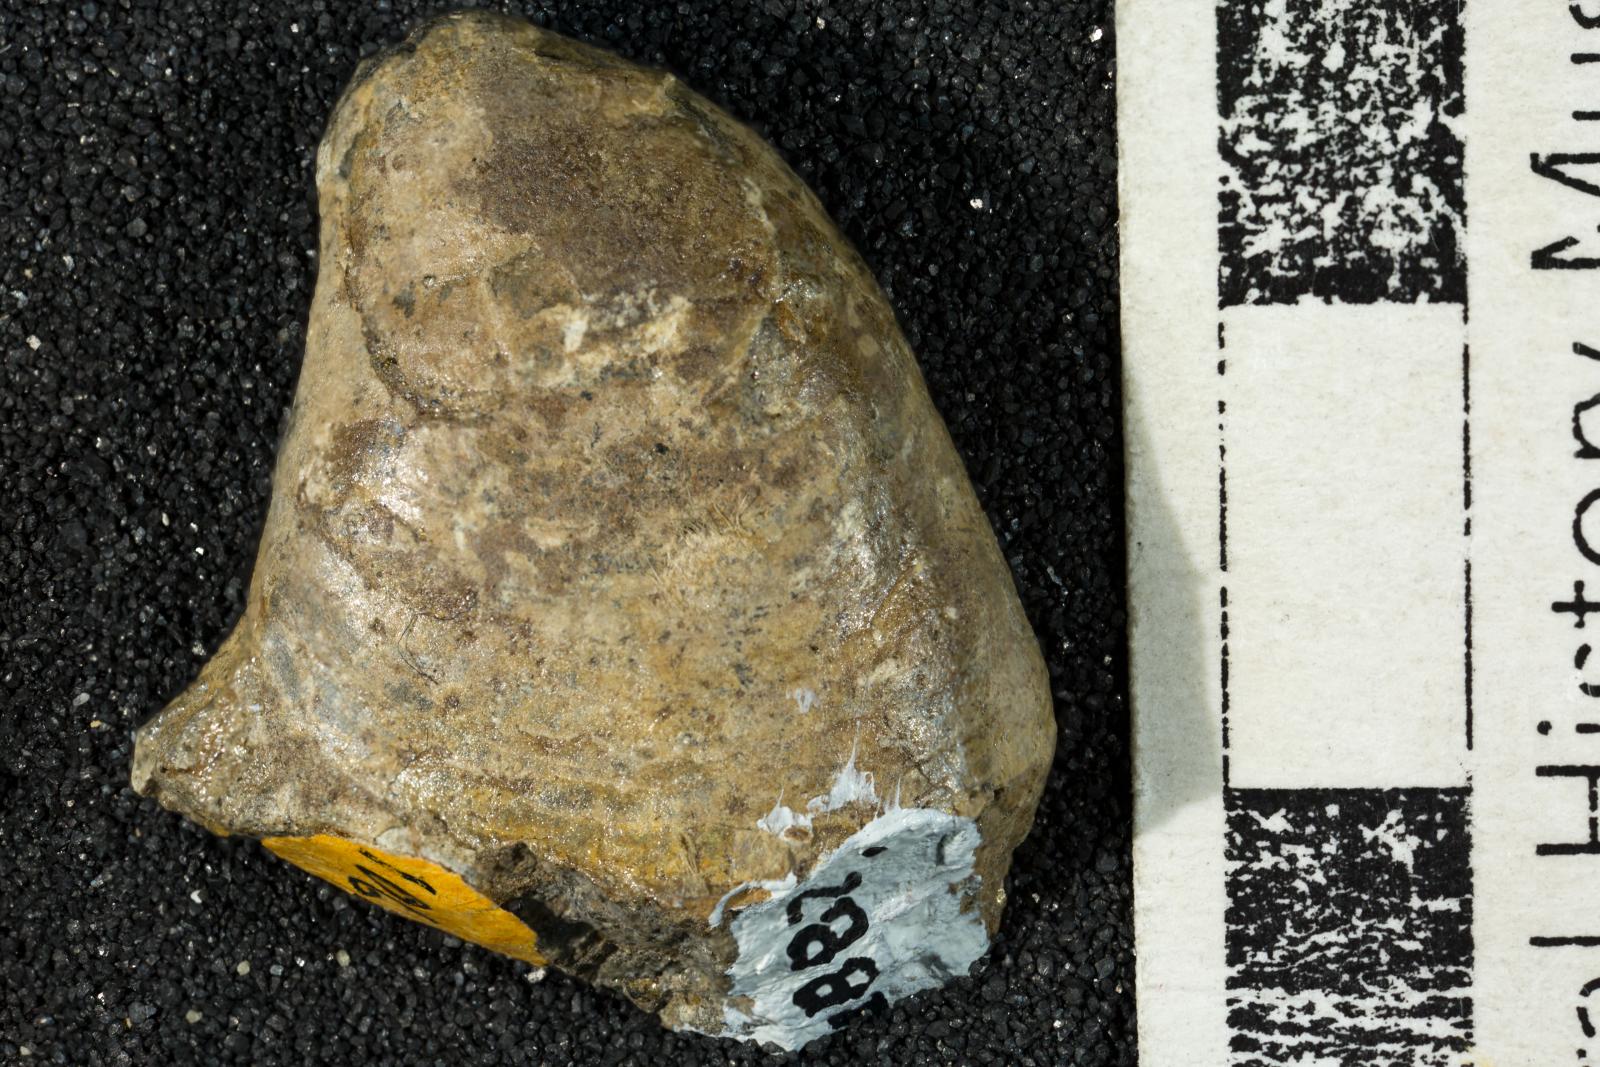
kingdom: Animalia
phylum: Mollusca
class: Gastropoda
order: Siphonariida
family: Siphonariidae
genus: Anisomyon
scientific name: Anisomyon
